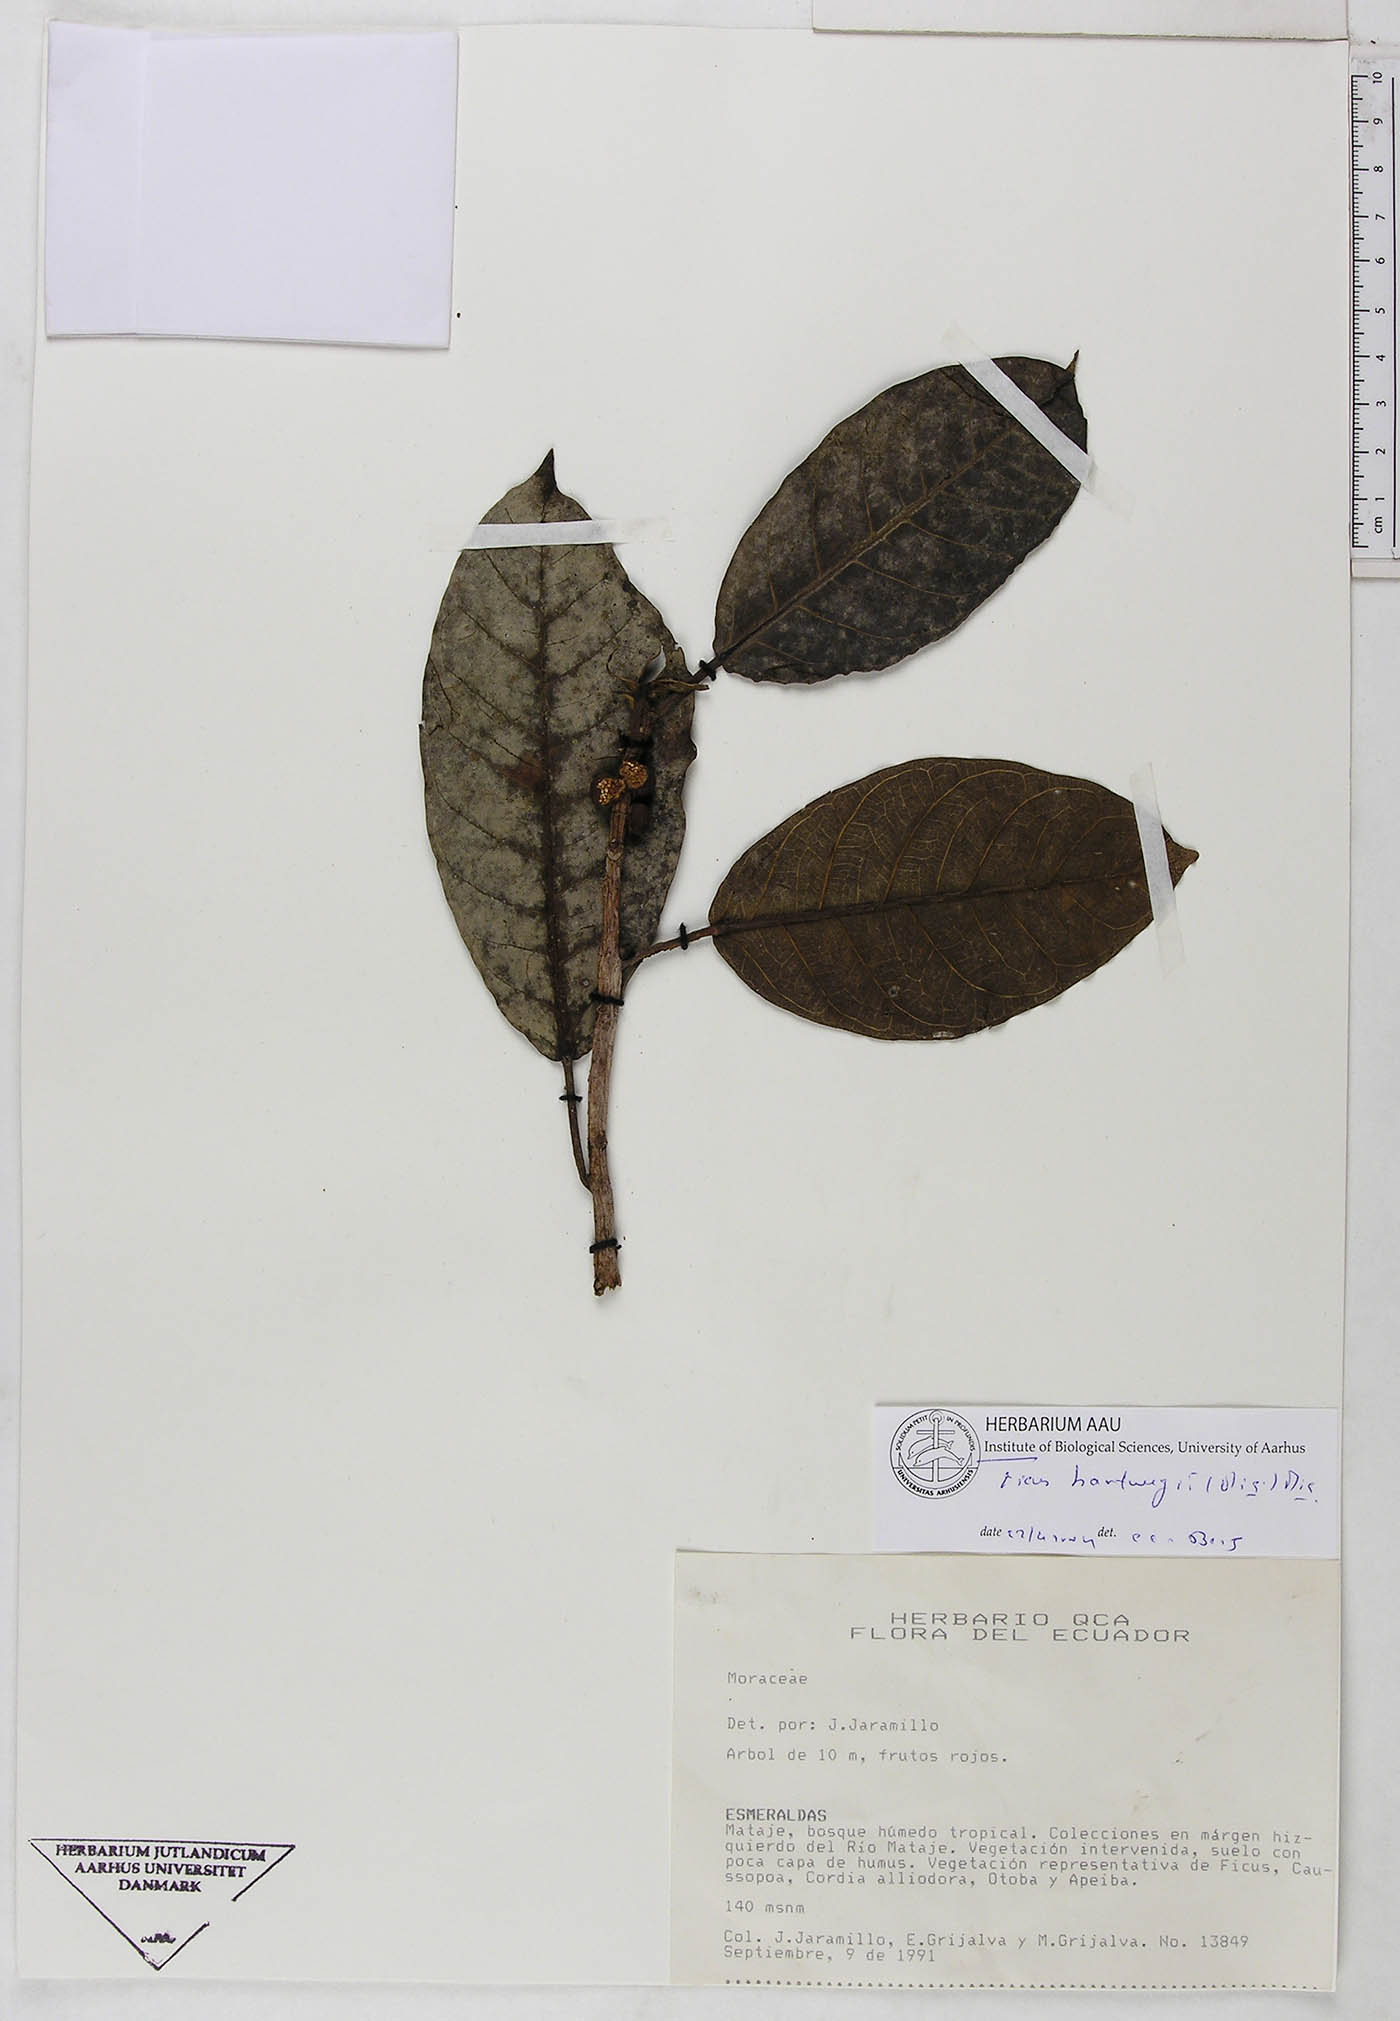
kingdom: Plantae
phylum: Tracheophyta
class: Magnoliopsida
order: Rosales
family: Moraceae
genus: Ficus
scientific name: Ficus hartwegii
